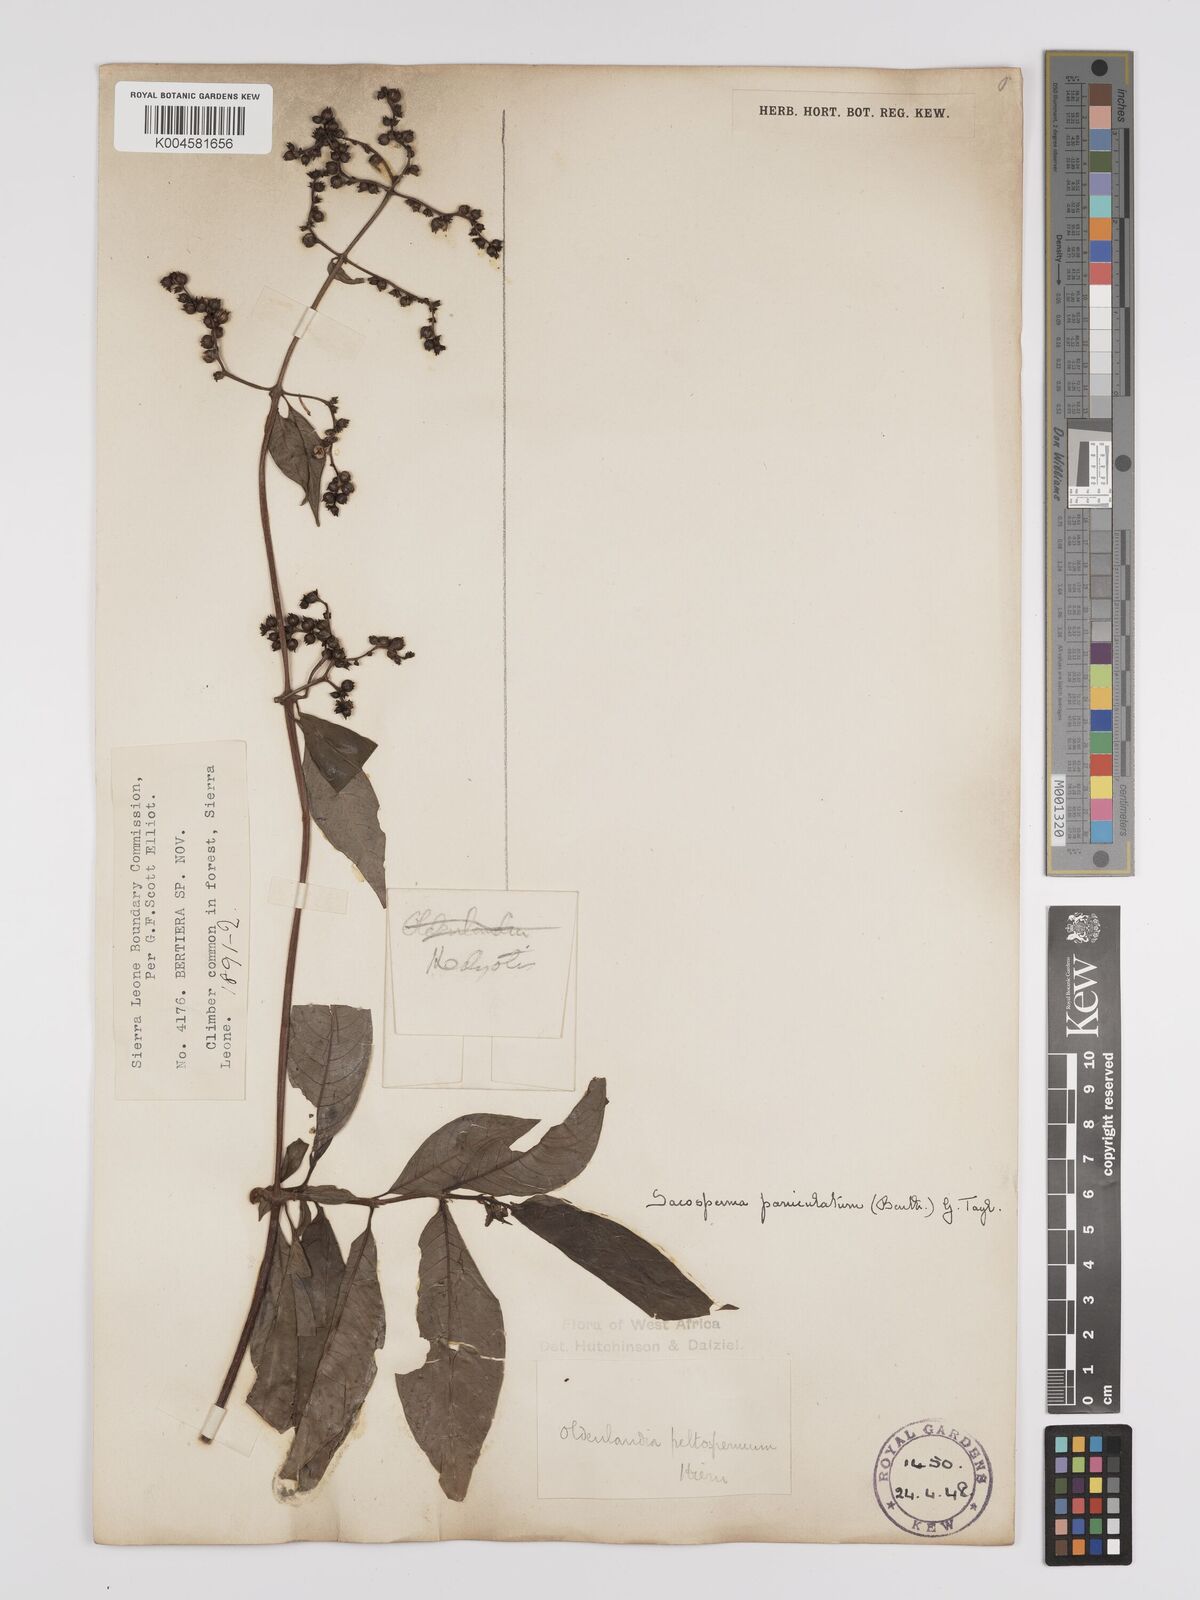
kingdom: Plantae
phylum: Tracheophyta
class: Magnoliopsida
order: Gentianales
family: Rubiaceae
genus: Sacosperma
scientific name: Sacosperma paniculatum
